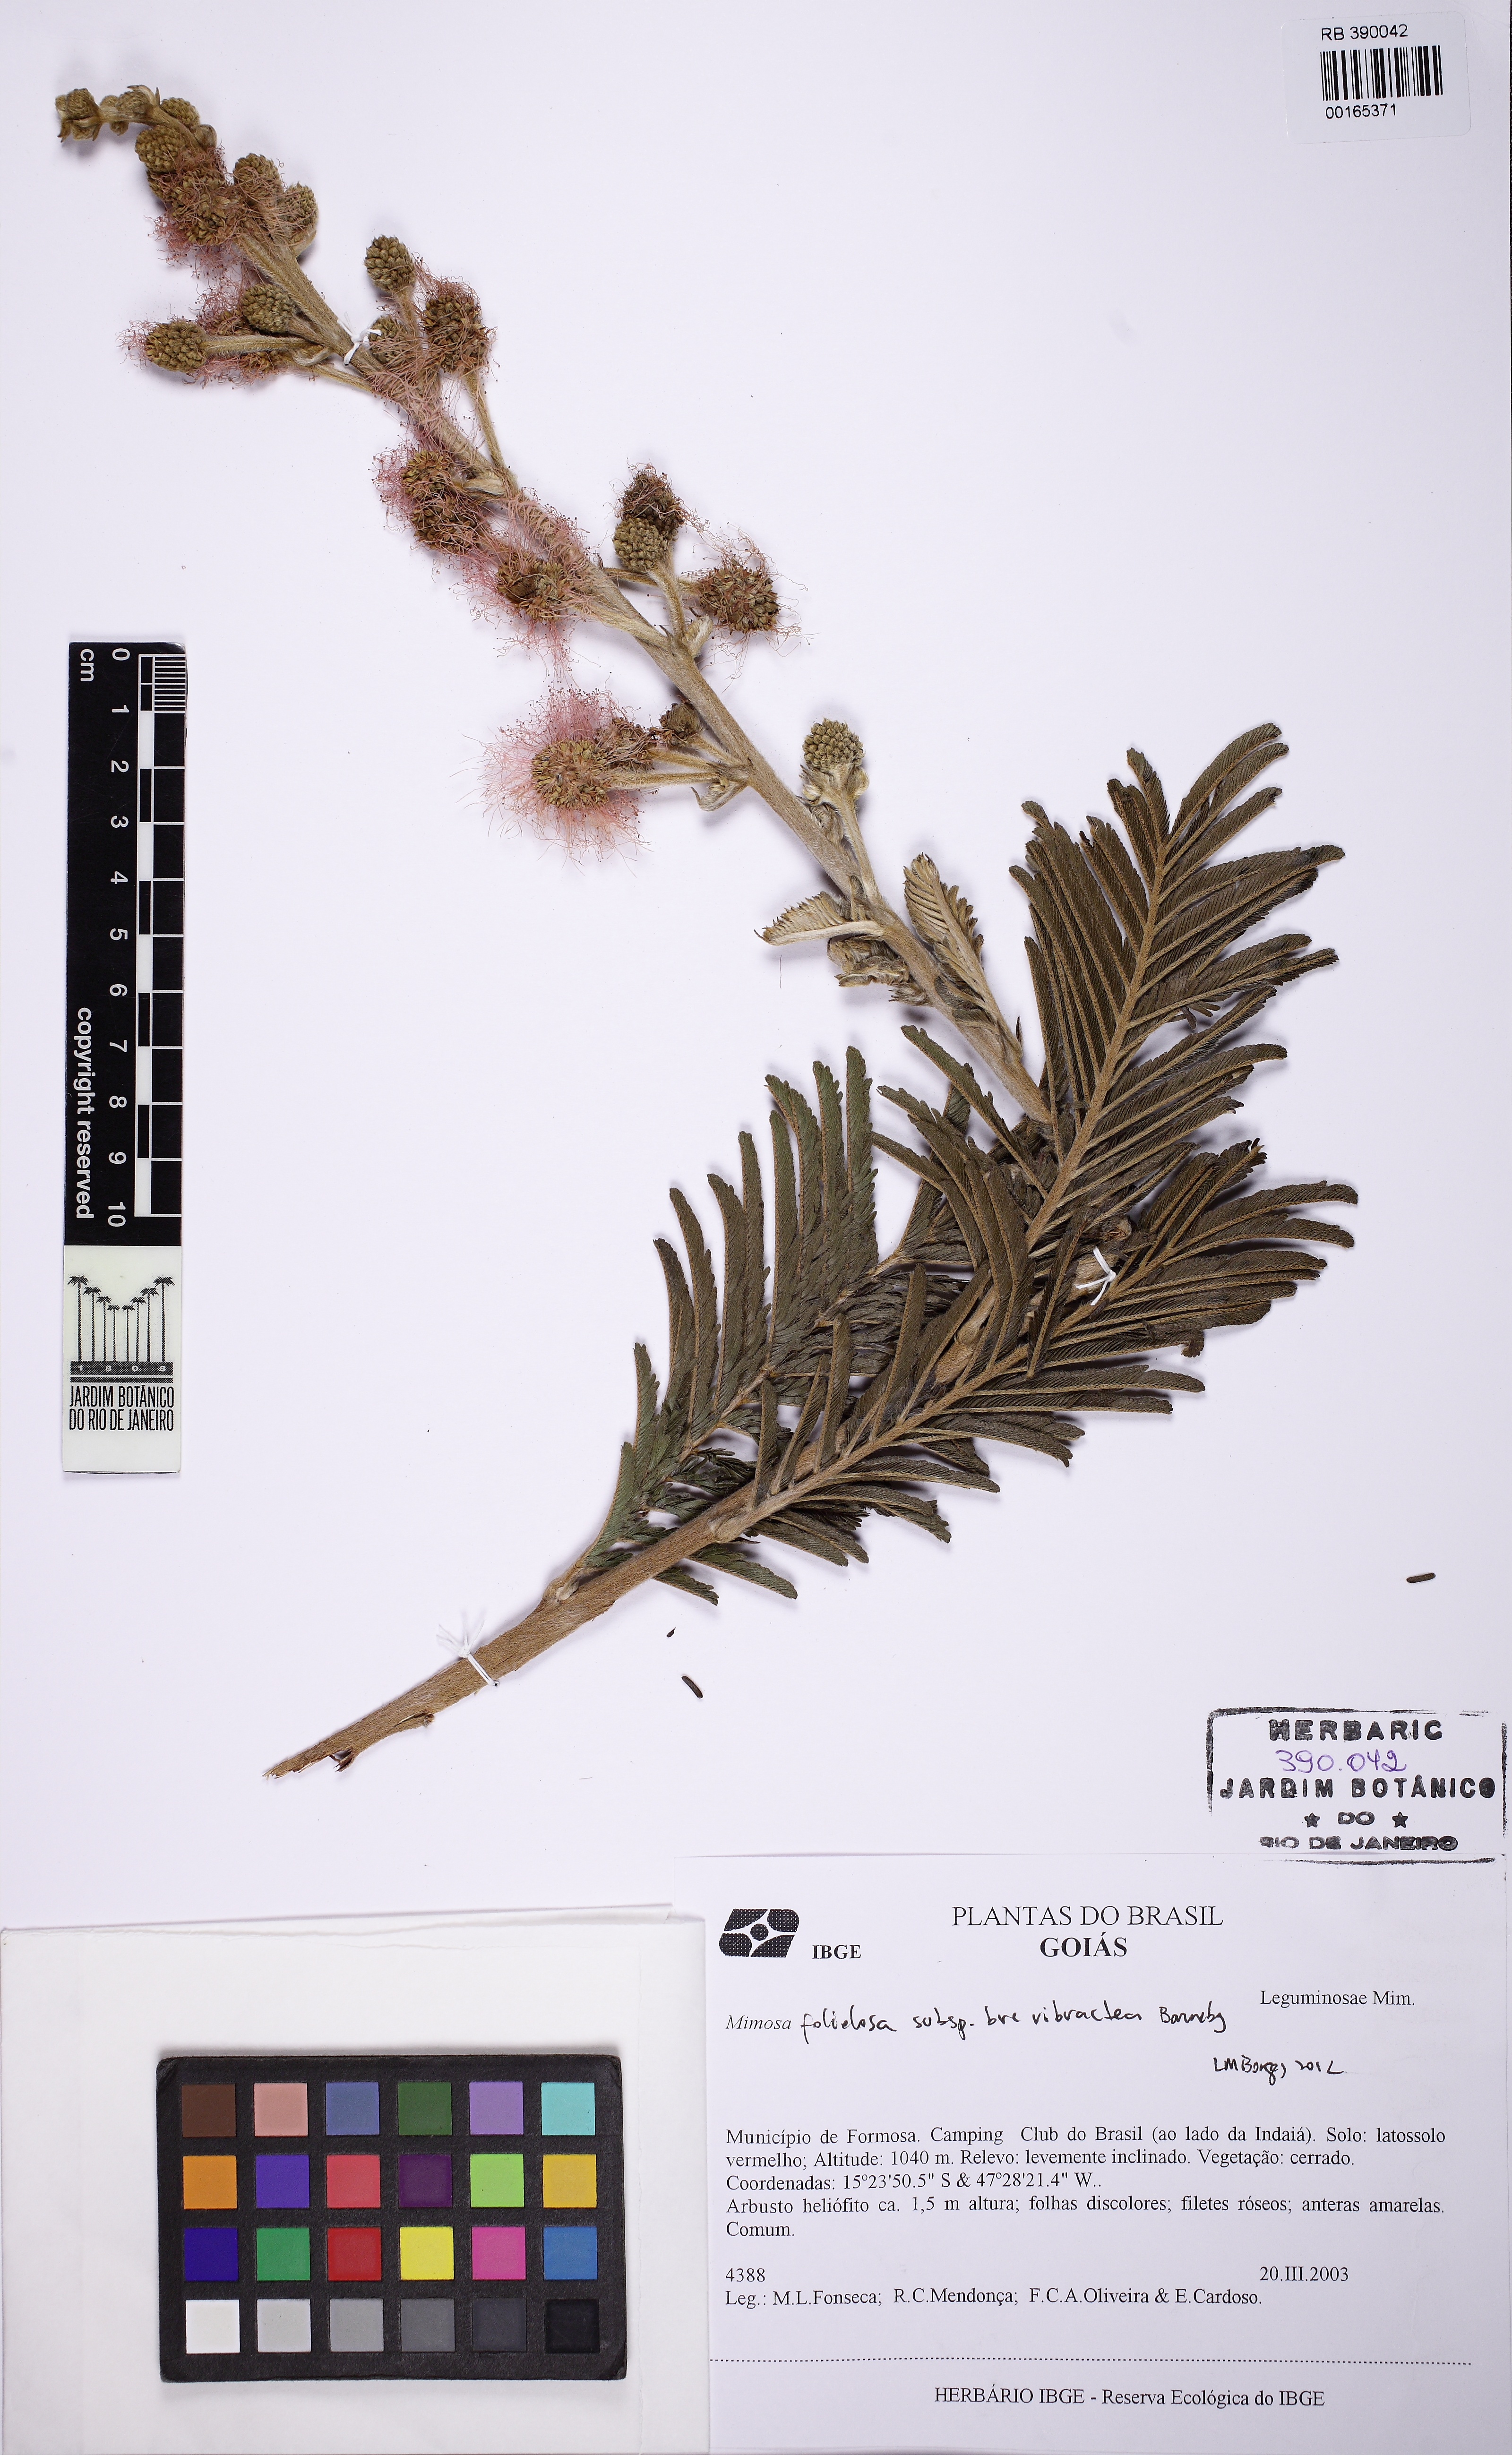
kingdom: Plantae
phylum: Tracheophyta
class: Magnoliopsida
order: Fabales
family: Fabaceae
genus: Mimosa
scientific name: Mimosa foliolosa
